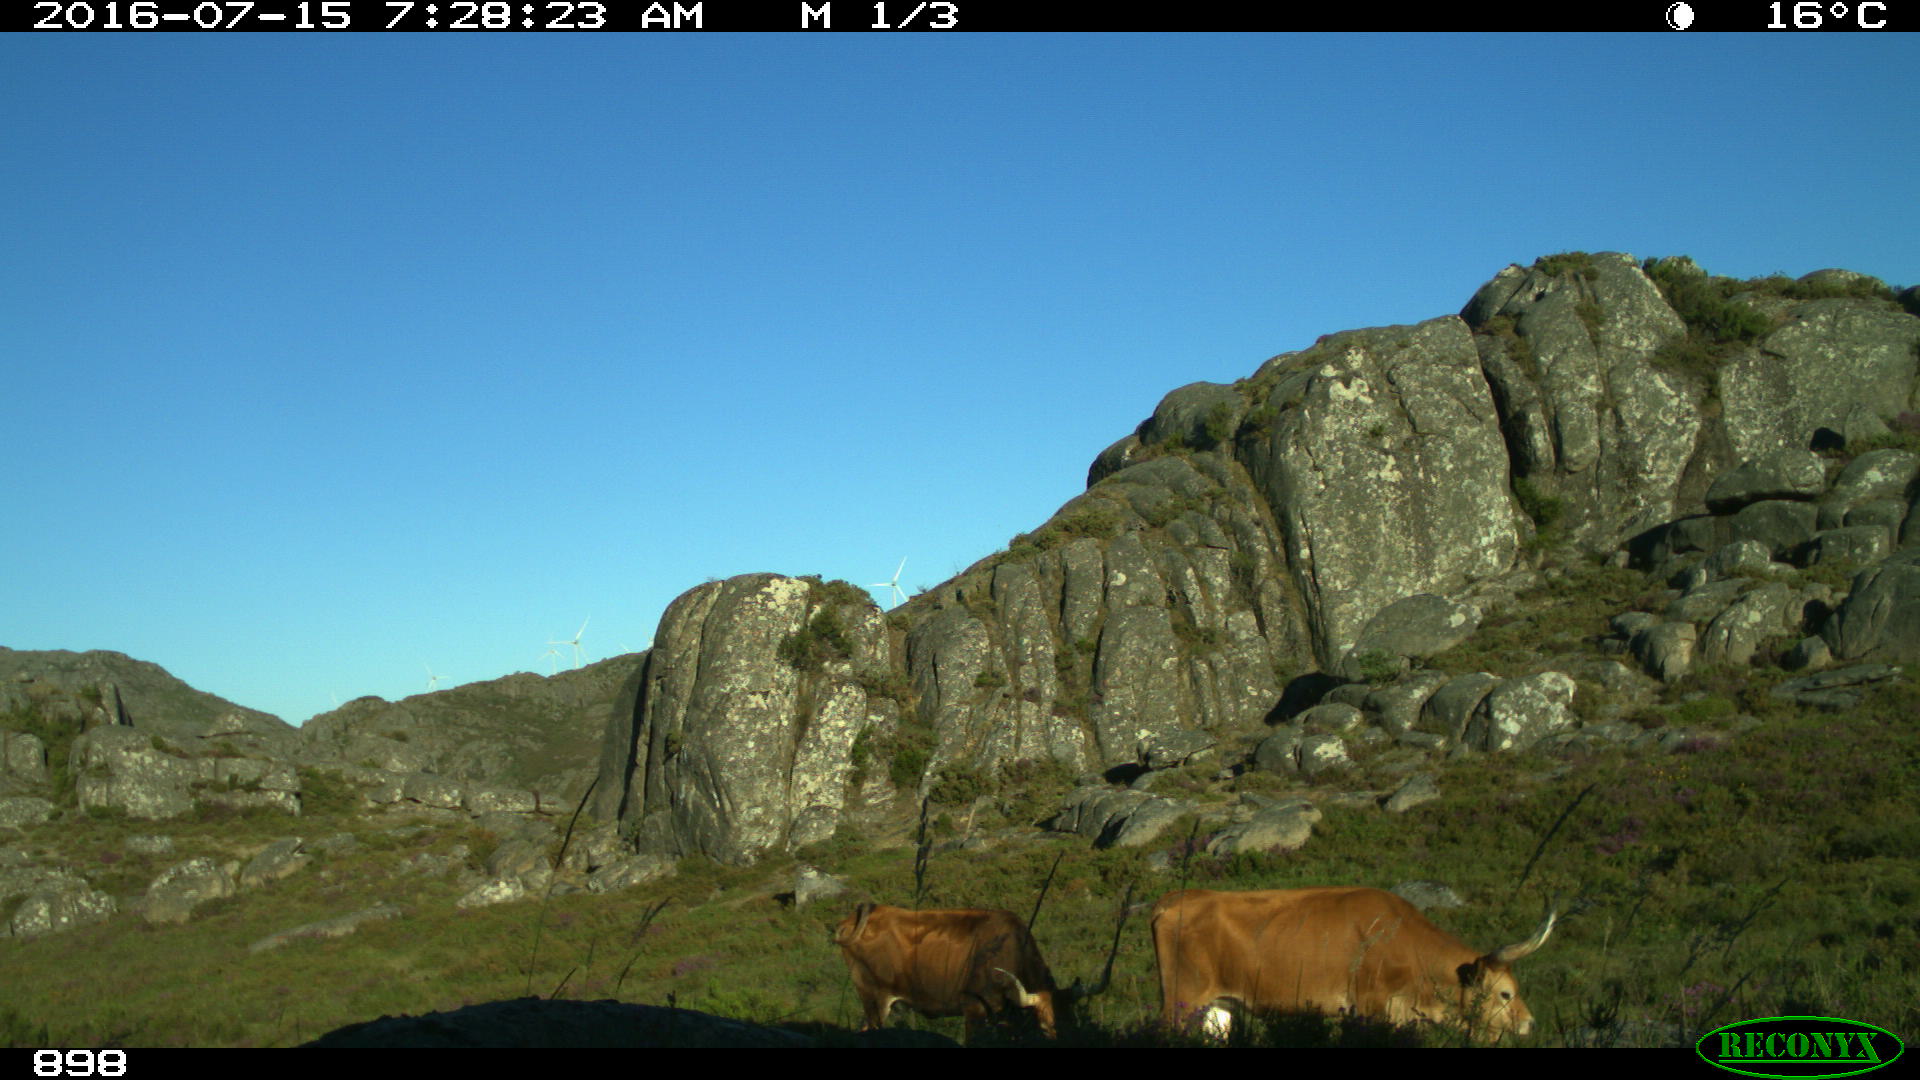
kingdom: Animalia
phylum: Chordata
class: Mammalia
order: Artiodactyla
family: Bovidae
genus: Bos
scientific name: Bos taurus
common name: Domesticated cattle
